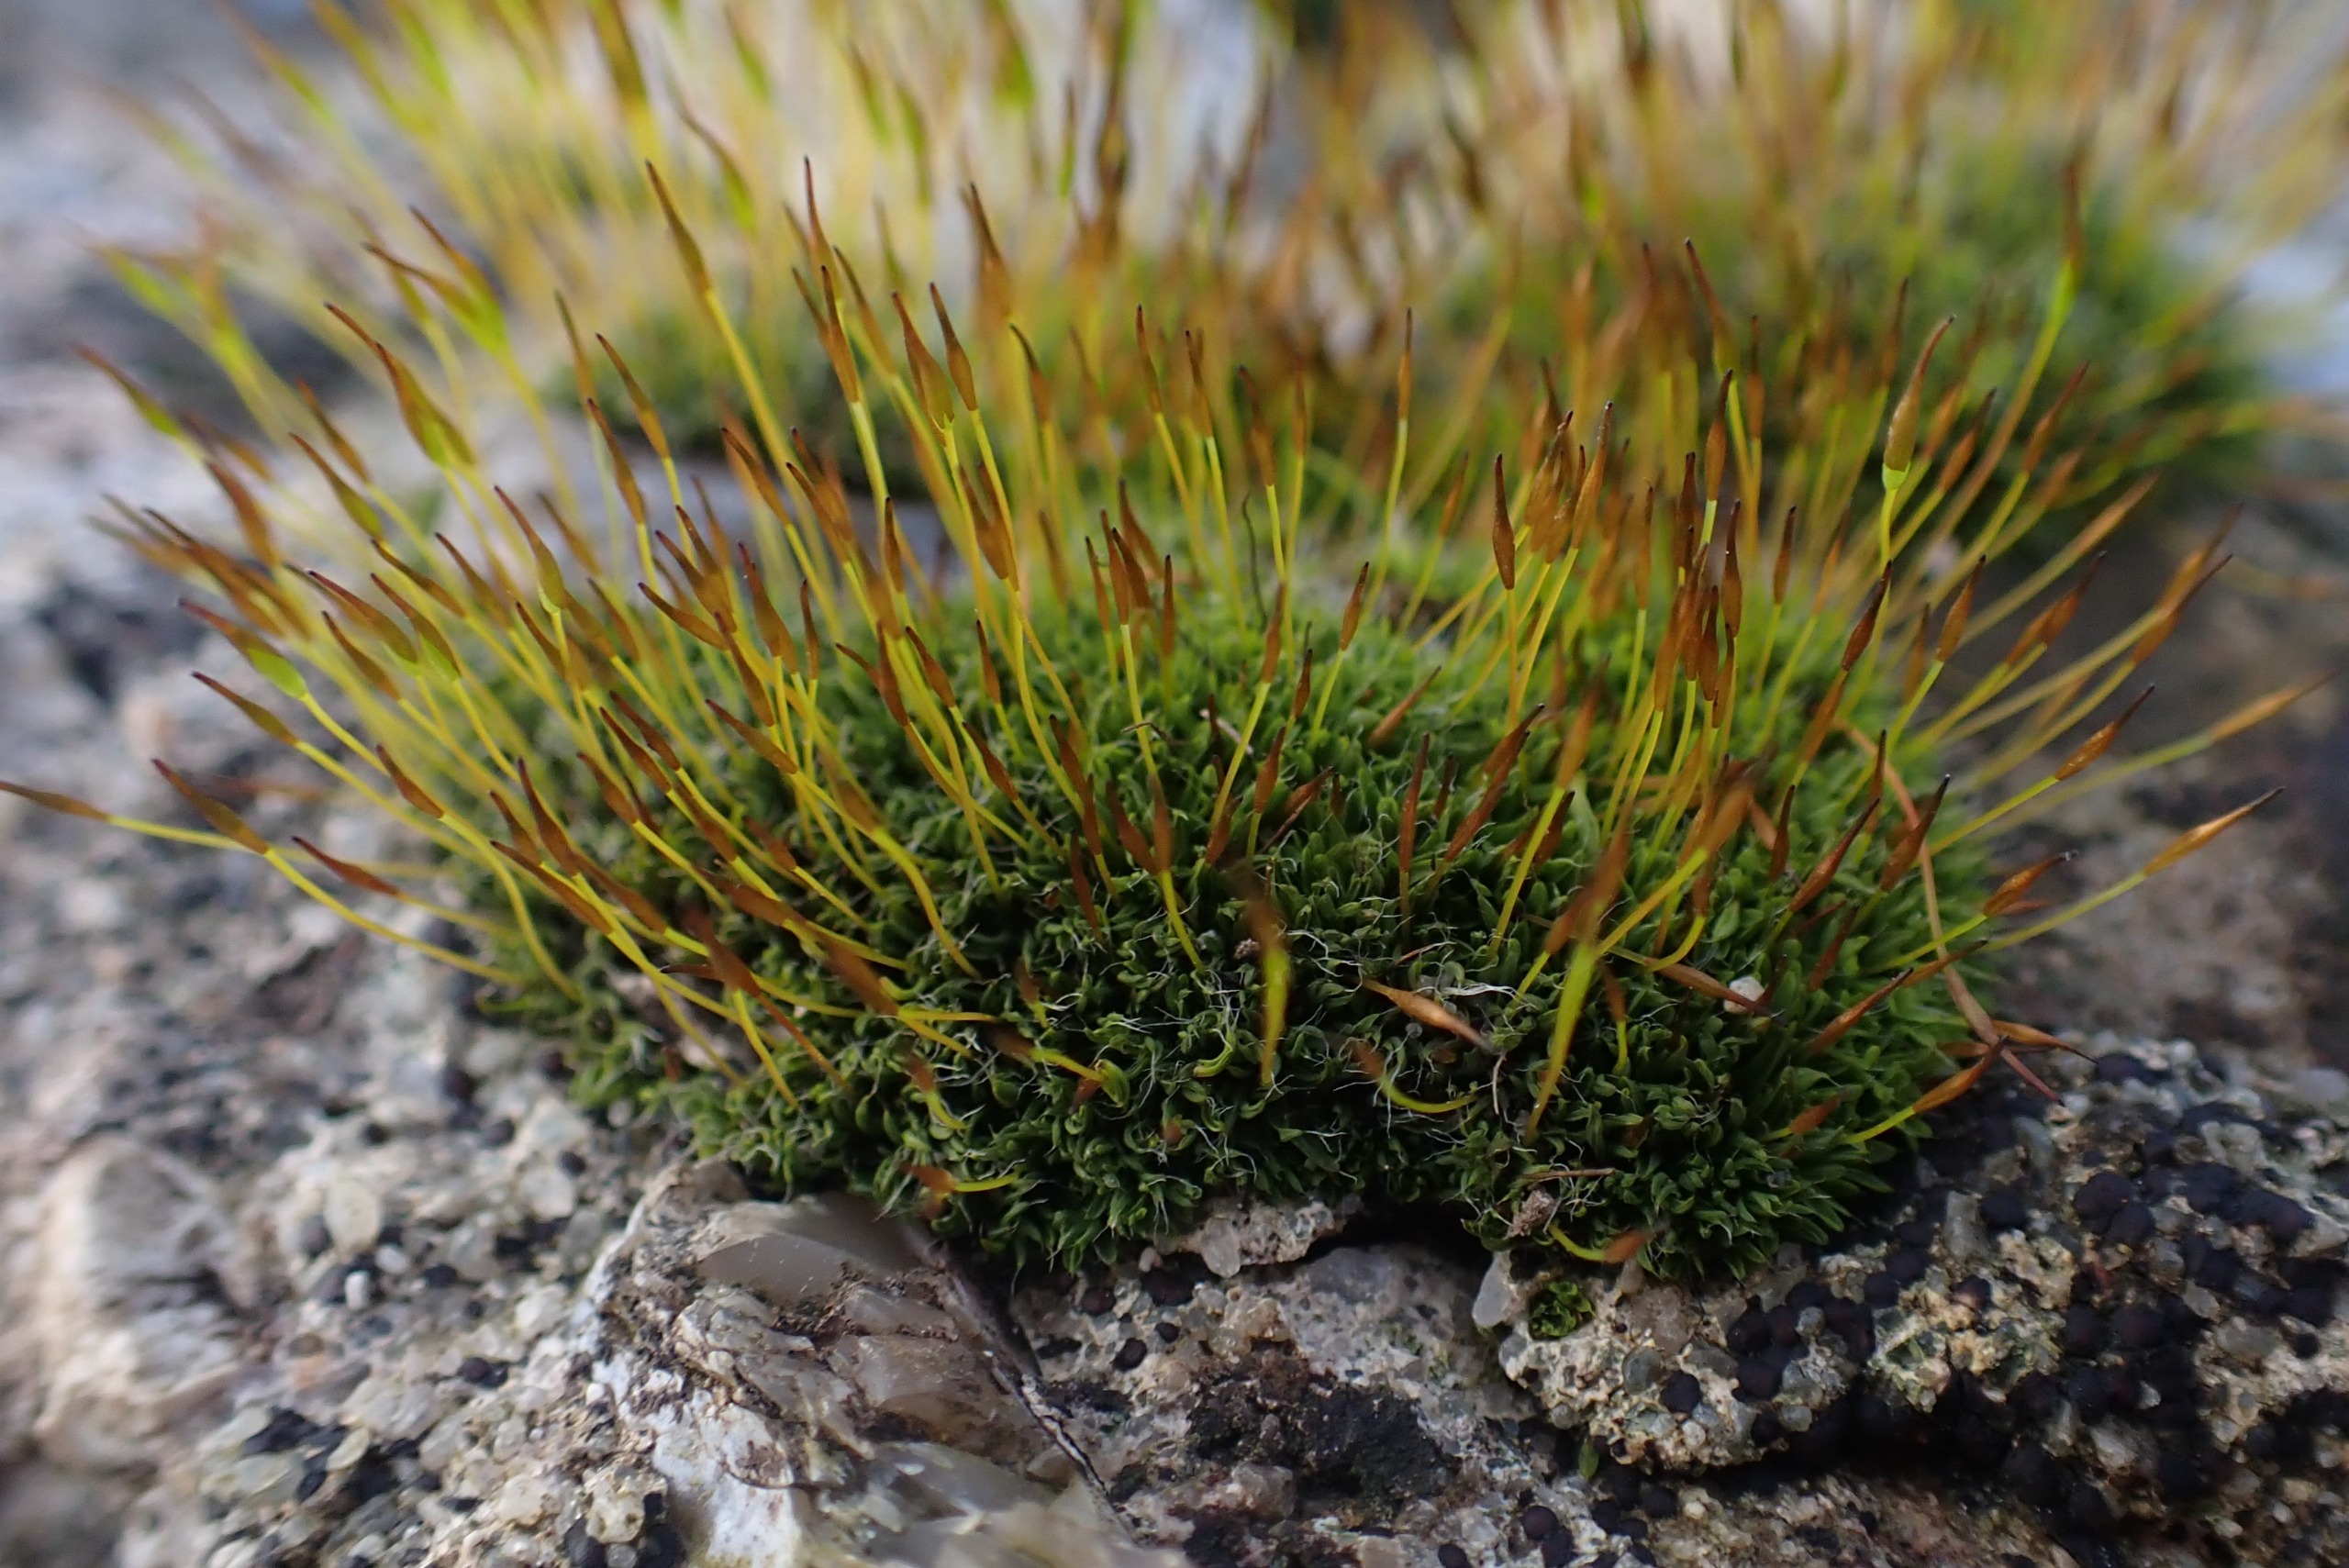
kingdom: Plantae
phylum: Bryophyta
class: Bryopsida
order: Pottiales
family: Pottiaceae
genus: Tortula
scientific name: Tortula muralis
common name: Mur-snotand
